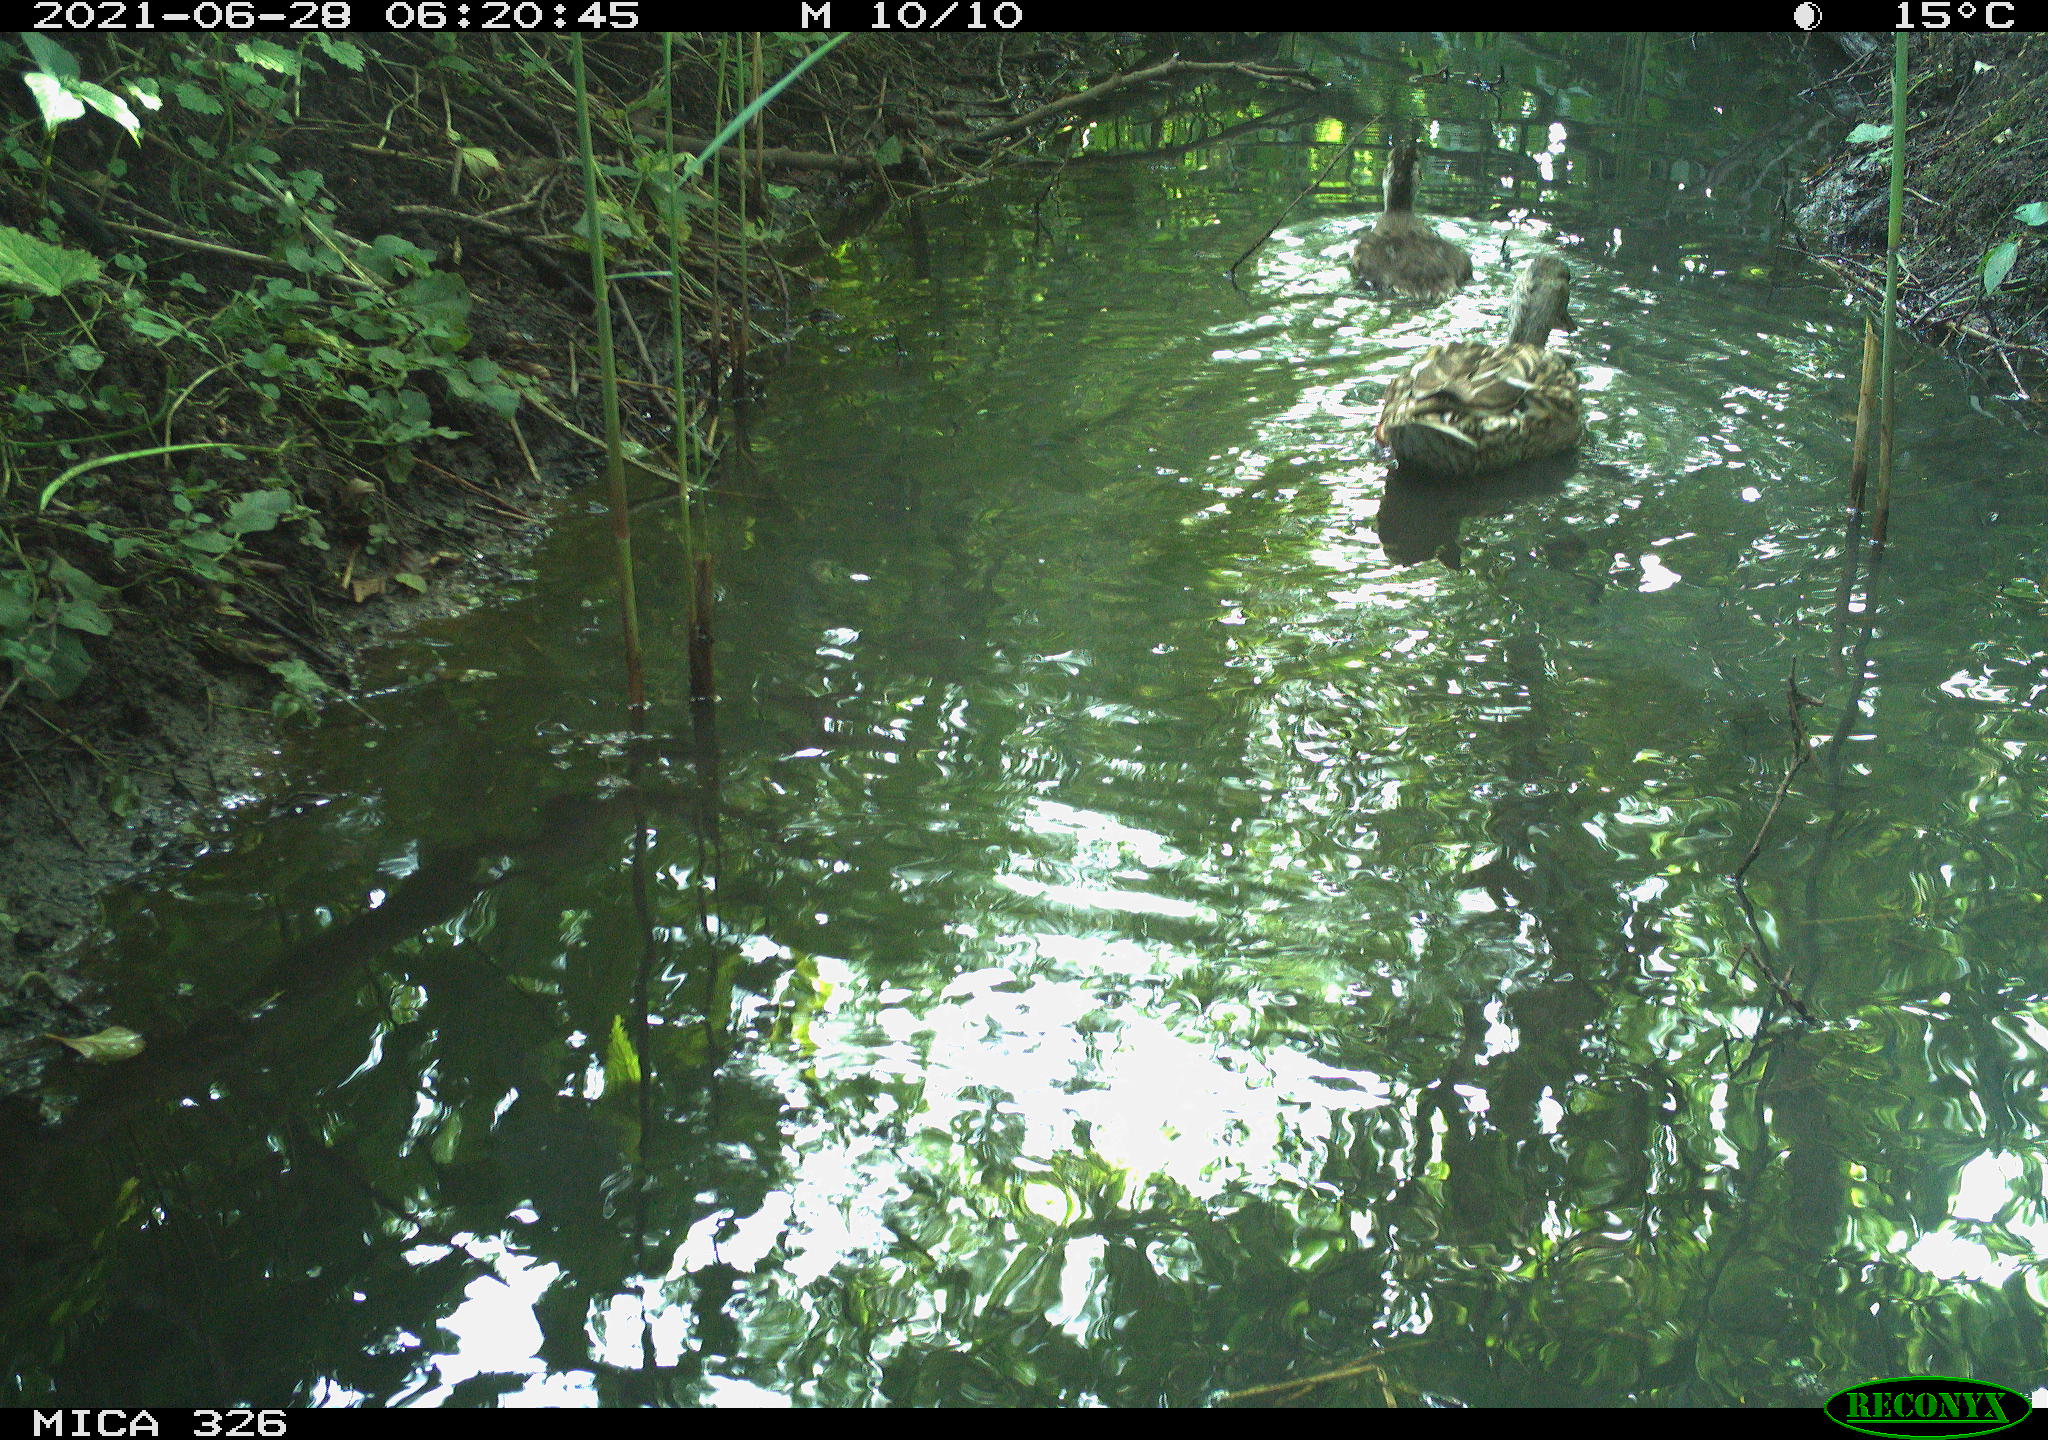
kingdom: Animalia
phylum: Chordata
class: Aves
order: Anseriformes
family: Anatidae
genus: Anas
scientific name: Anas platyrhynchos
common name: Mallard
